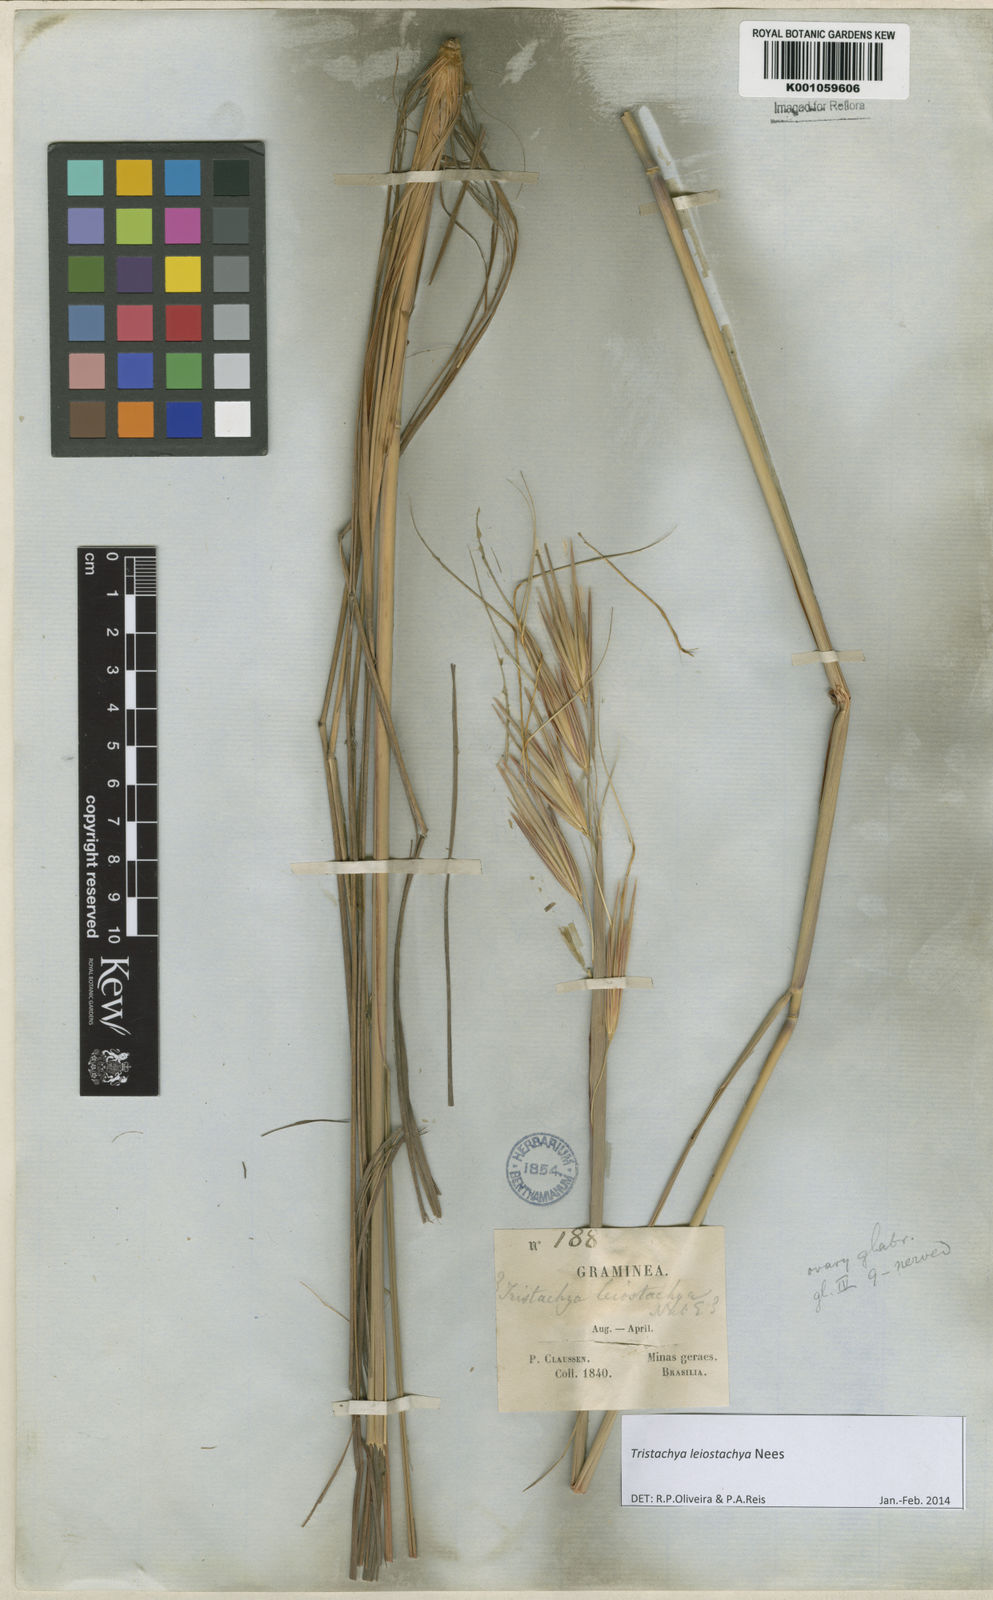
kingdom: Plantae
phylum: Tracheophyta
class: Liliopsida
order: Poales
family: Poaceae
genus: Tristachya
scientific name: Tristachya leiostachya
